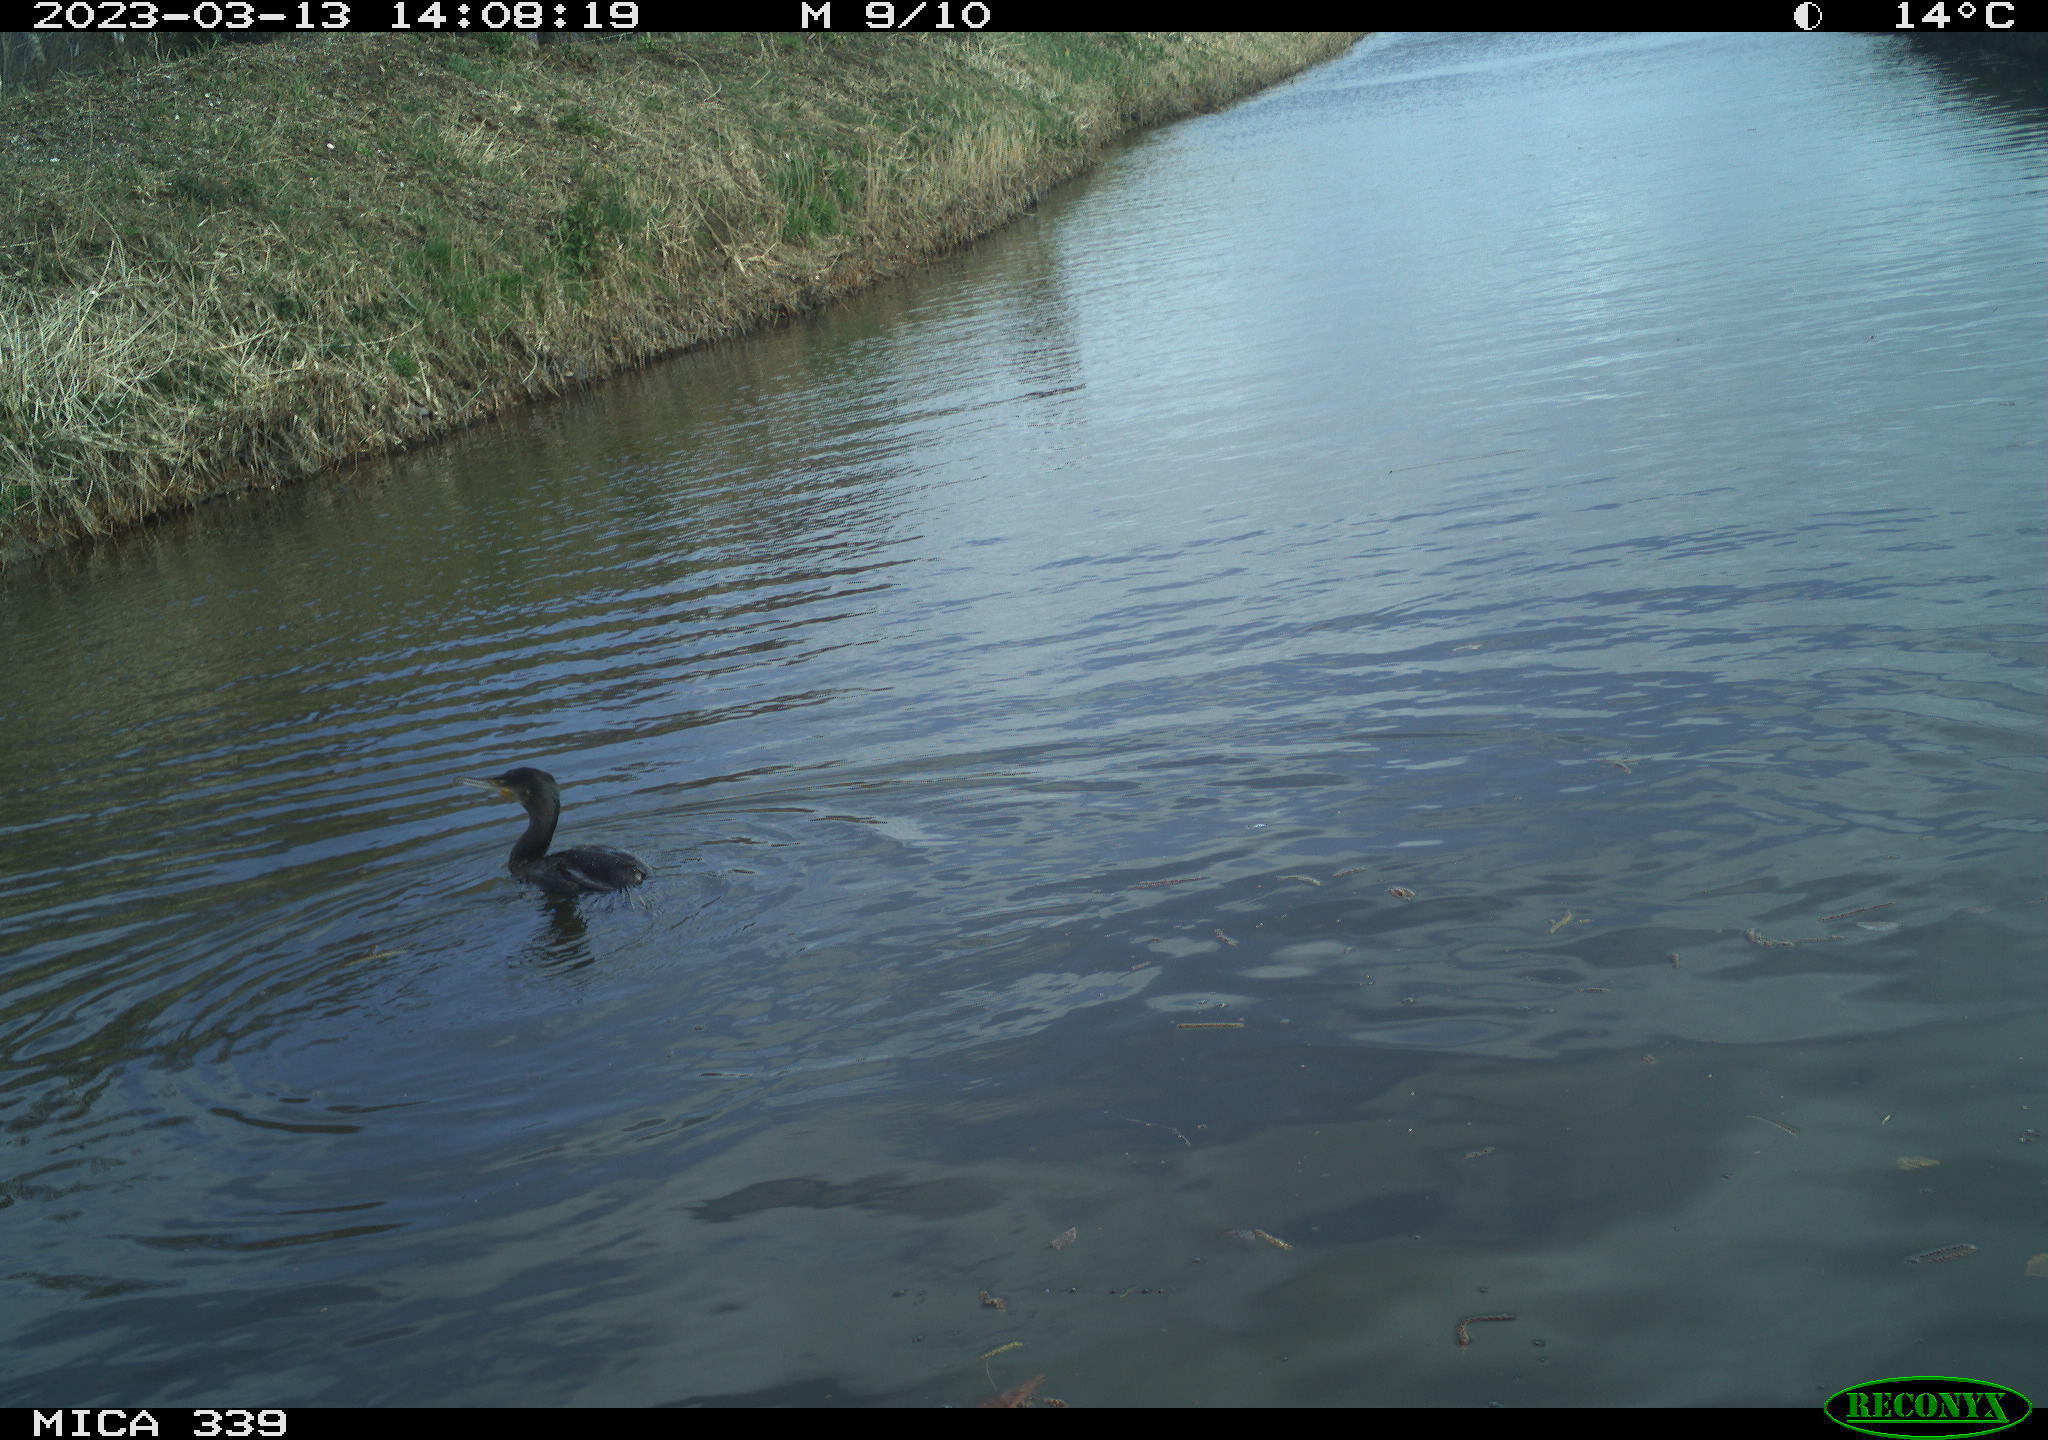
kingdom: Animalia
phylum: Chordata
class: Aves
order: Suliformes
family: Phalacrocoracidae
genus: Phalacrocorax
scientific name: Phalacrocorax carbo
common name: Great cormorant
